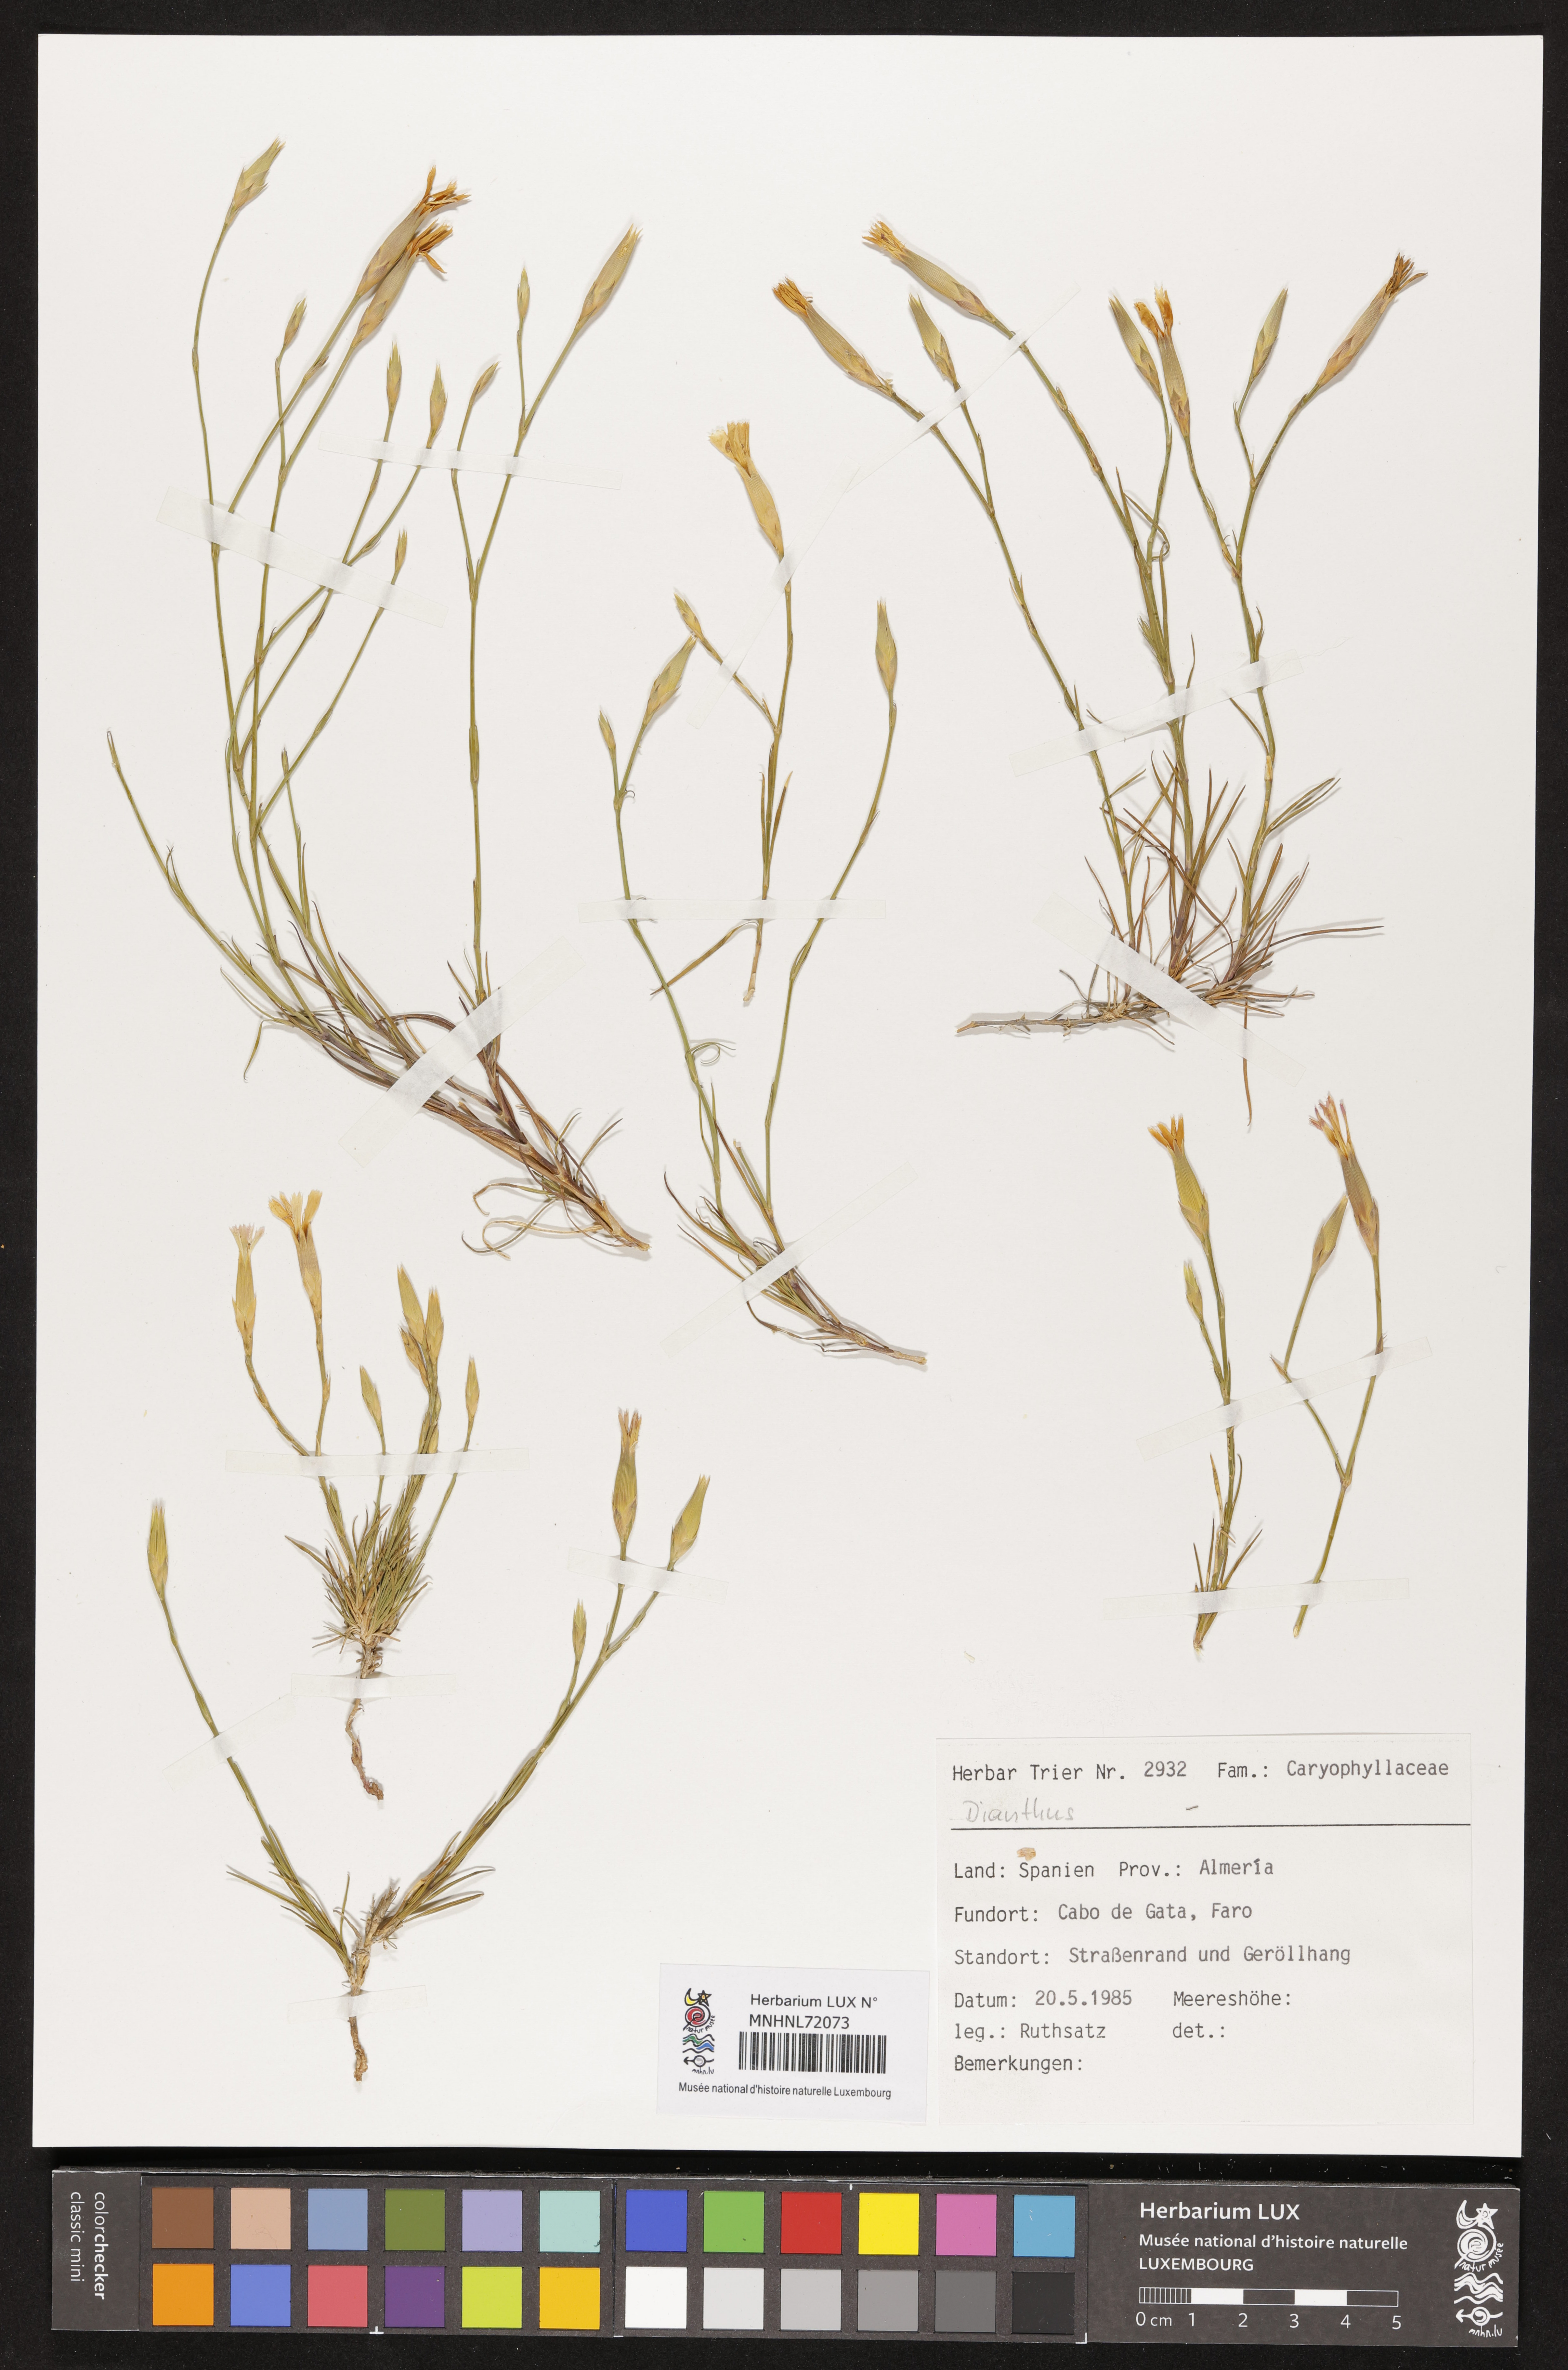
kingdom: Plantae
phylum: Tracheophyta
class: Magnoliopsida
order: Caryophyllales
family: Caryophyllaceae
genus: Dianthus
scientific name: Dianthus
